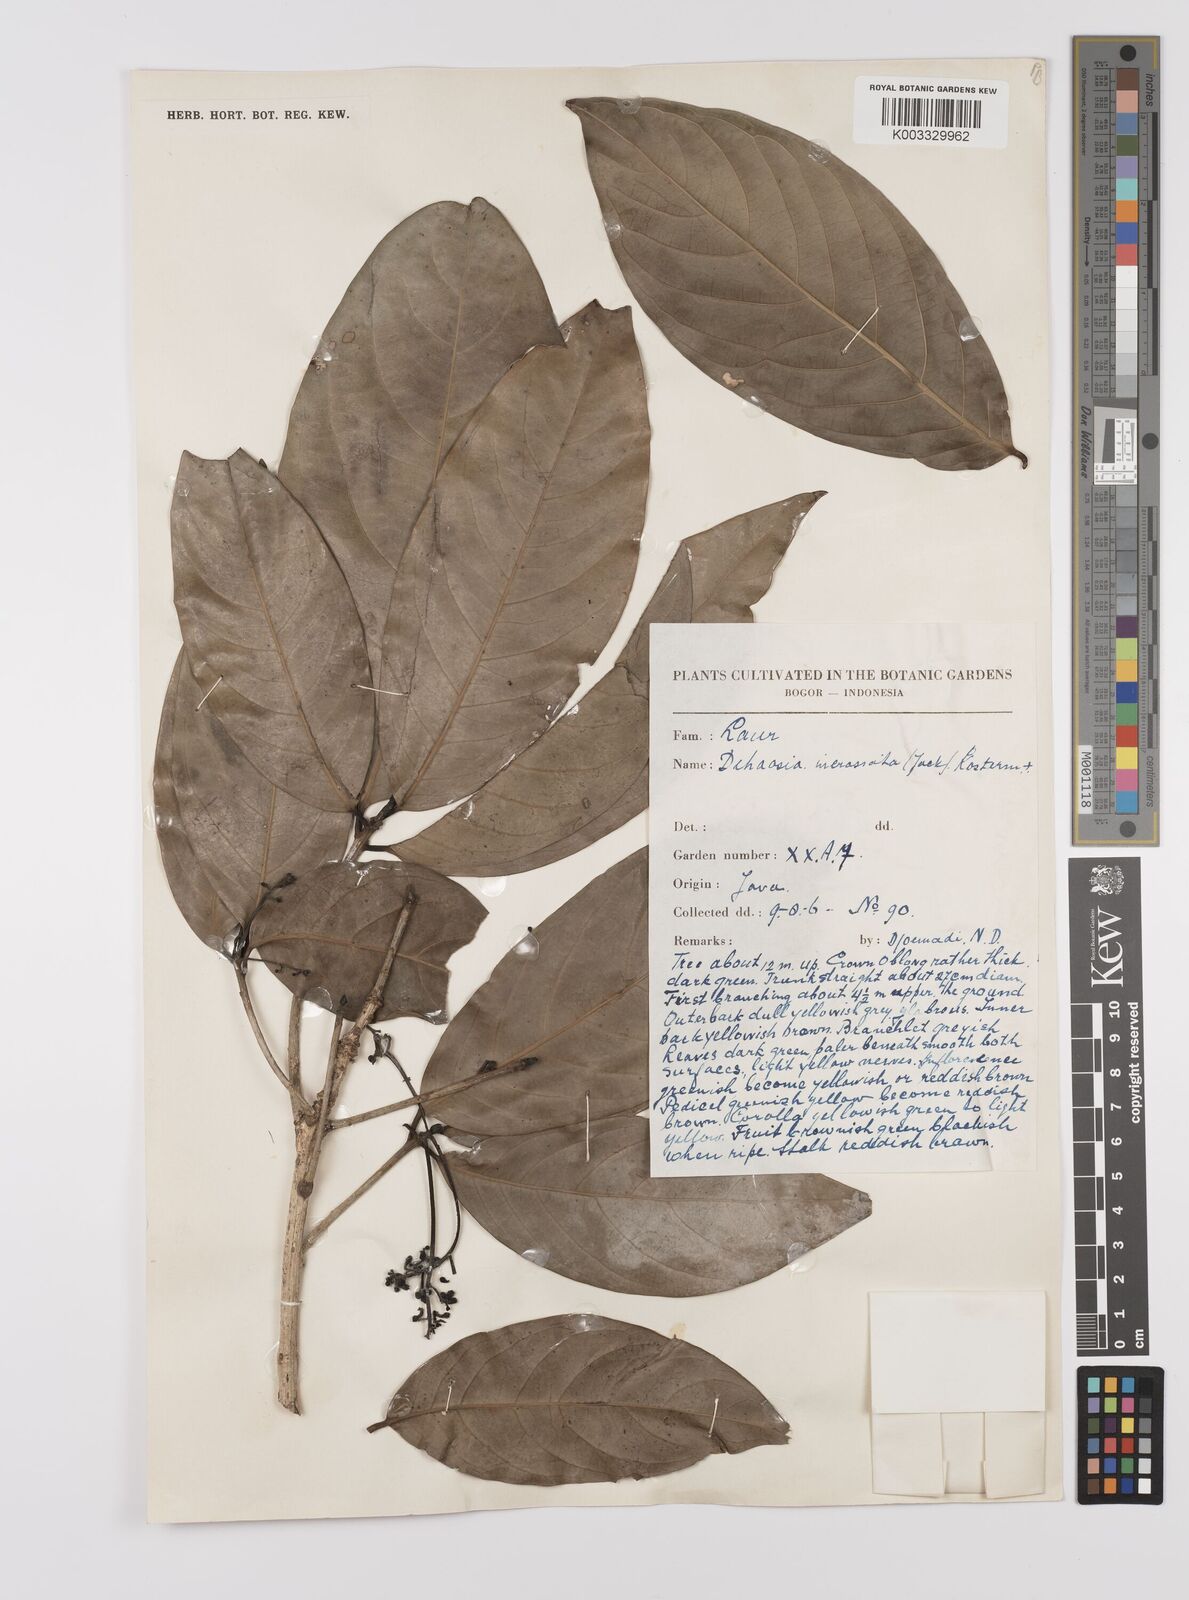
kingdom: Plantae
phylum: Tracheophyta
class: Magnoliopsida
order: Laurales
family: Lauraceae
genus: Dehaasia
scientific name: Dehaasia incrassata
